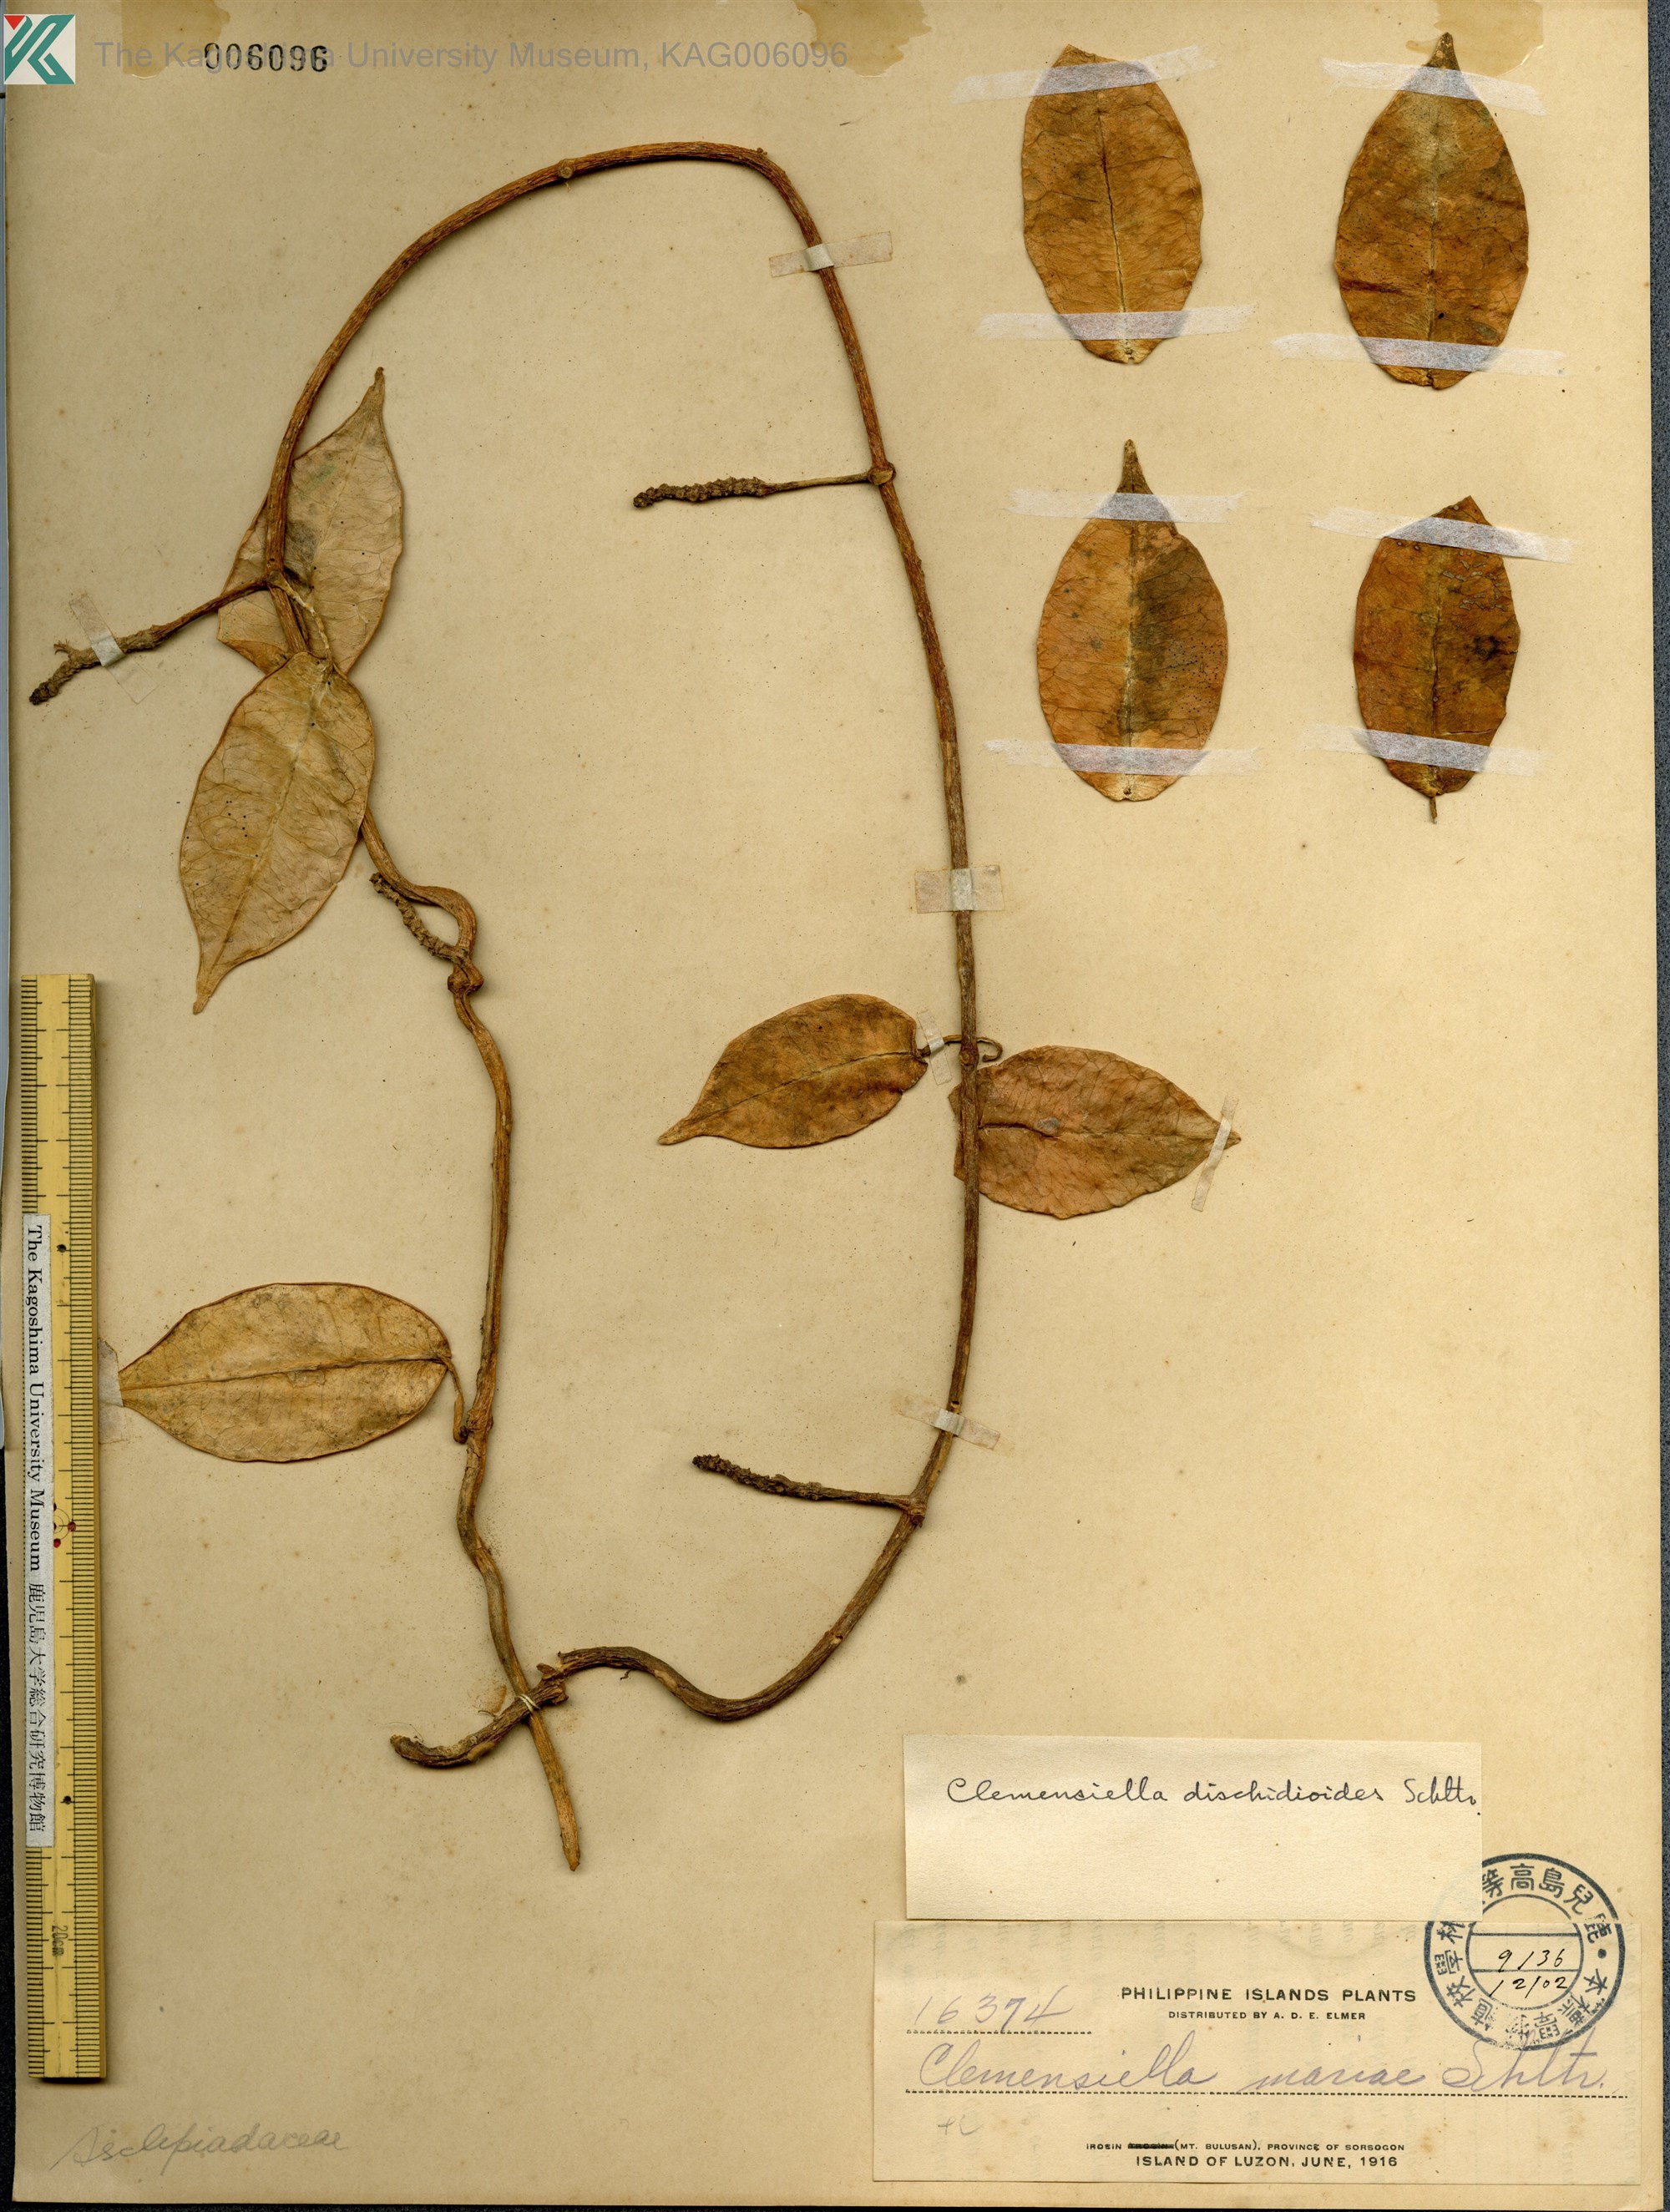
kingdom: Plantae
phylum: Tracheophyta
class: Magnoliopsida
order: Gentianales
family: Apocynaceae
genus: Hoya
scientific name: Hoya mariae
